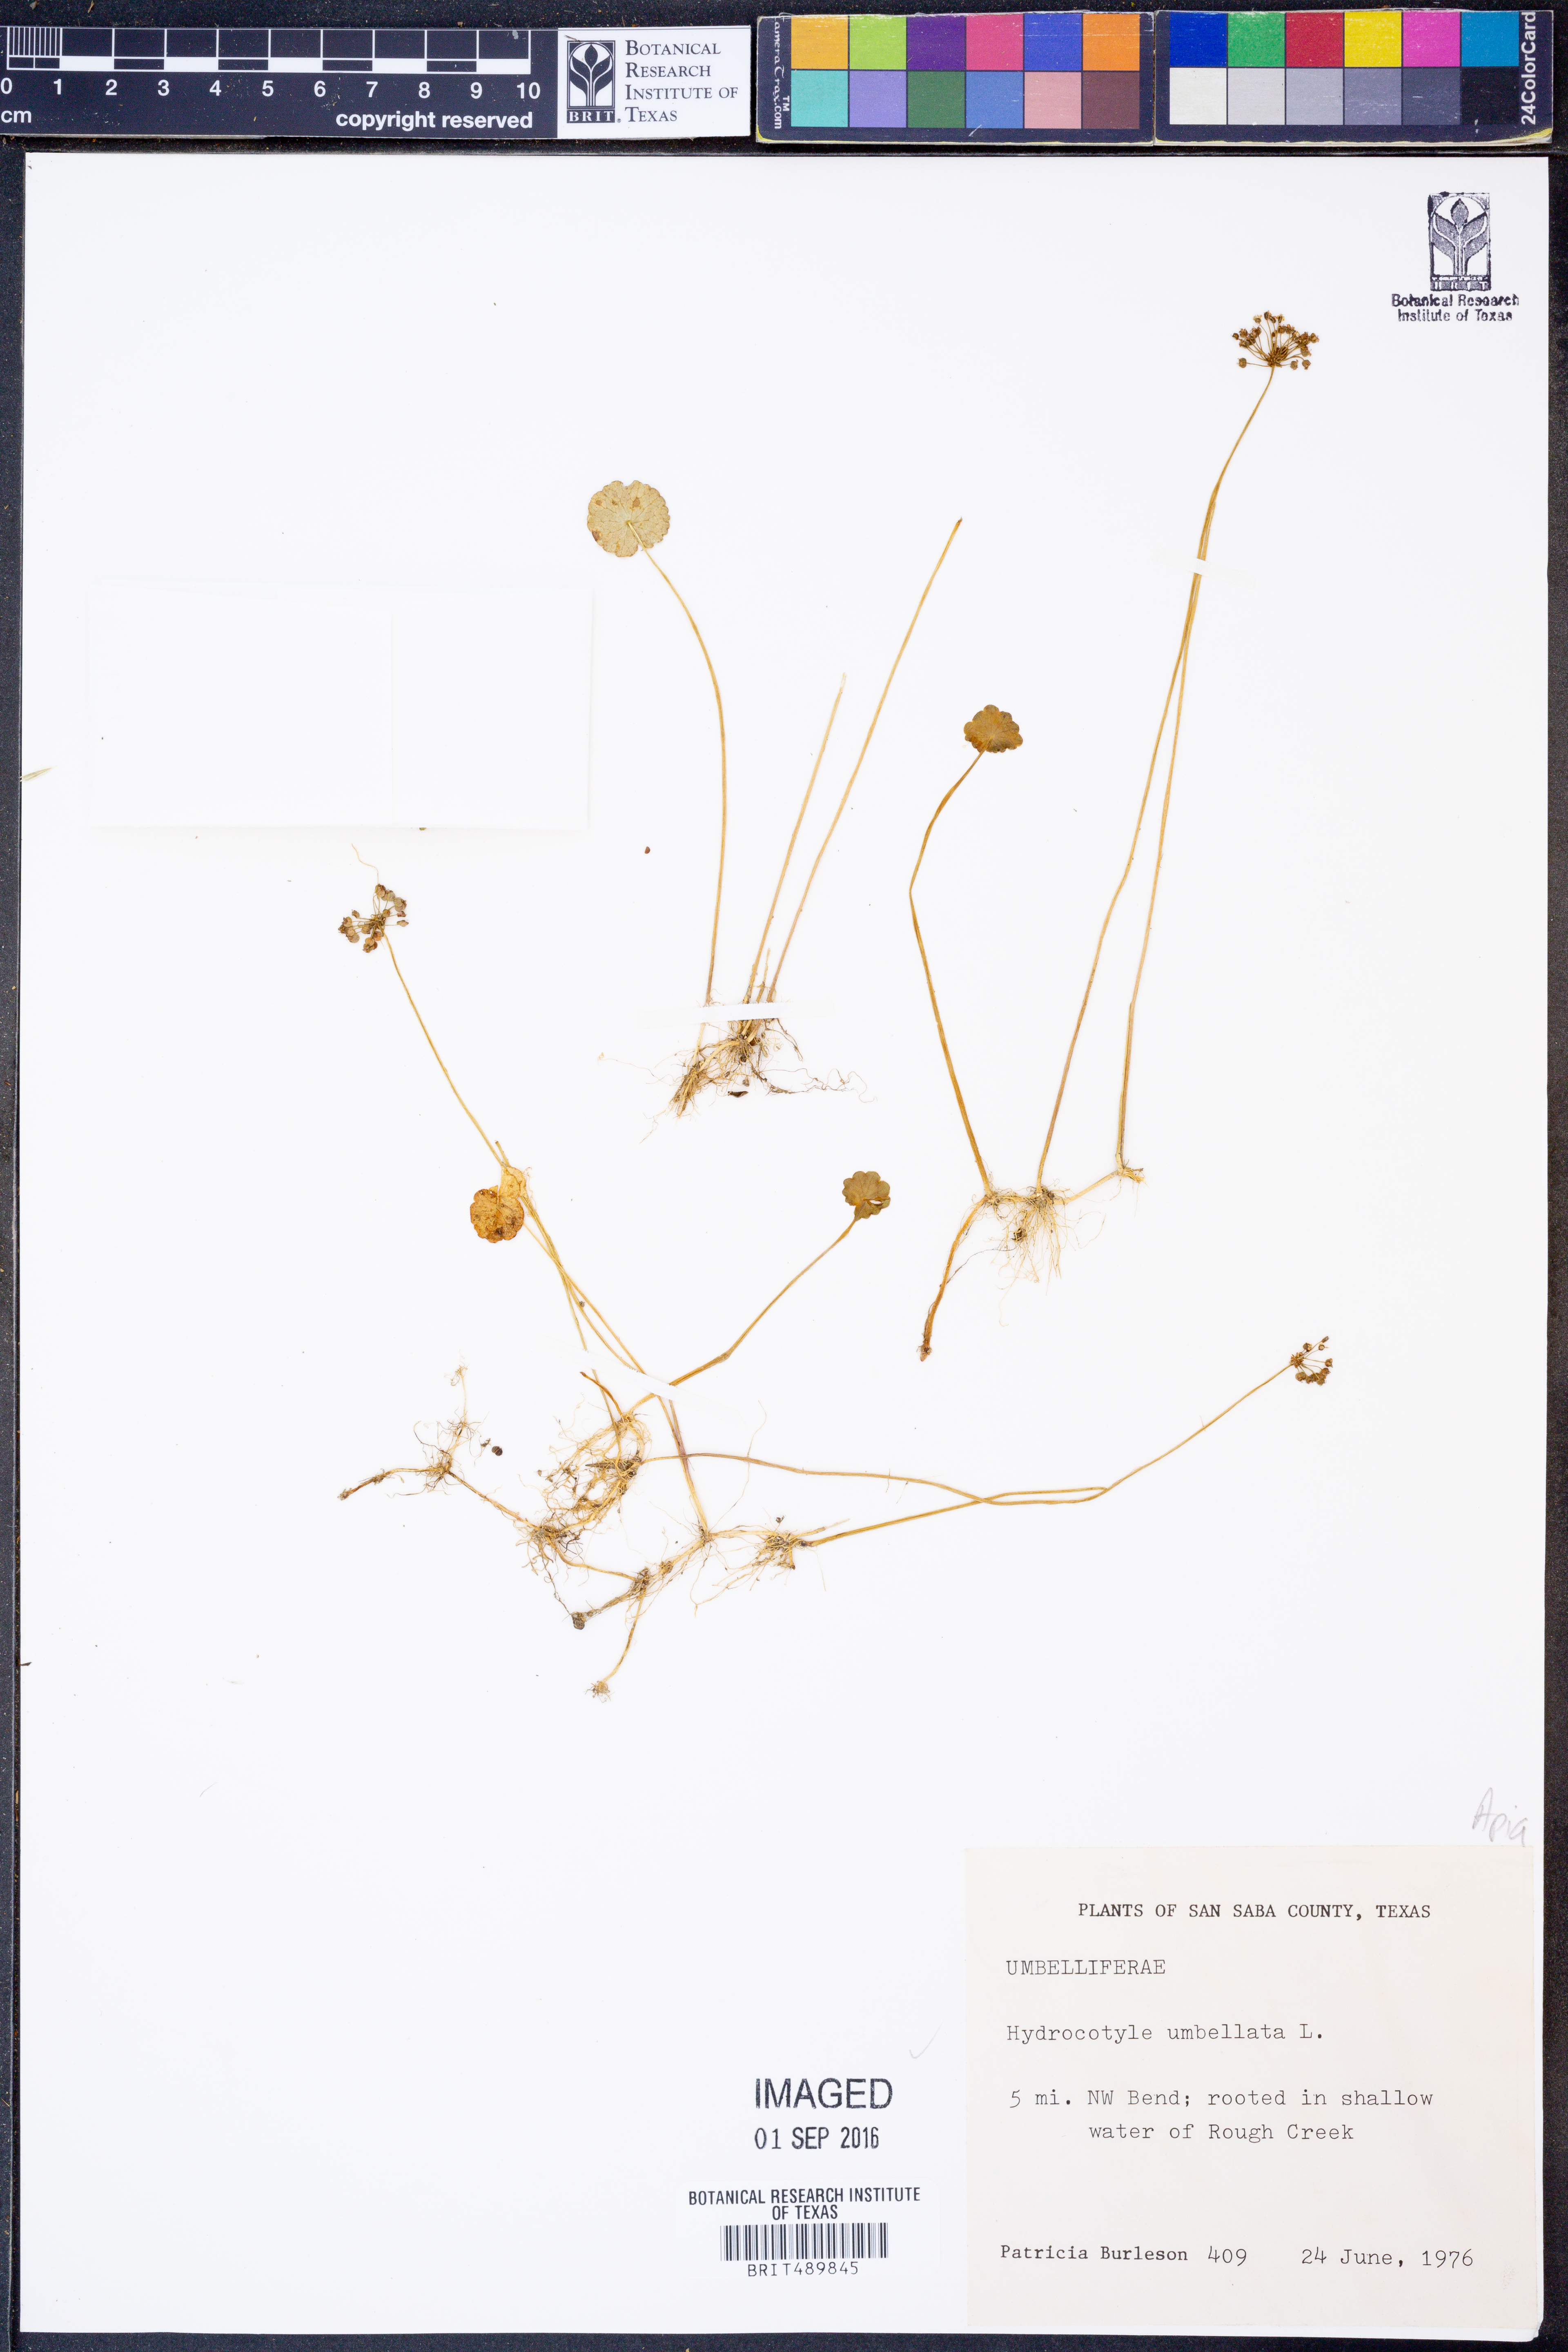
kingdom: Plantae
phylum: Tracheophyta
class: Magnoliopsida
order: Apiales
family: Araliaceae
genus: Hydrocotyle
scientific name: Hydrocotyle umbellata
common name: Water pennywort
